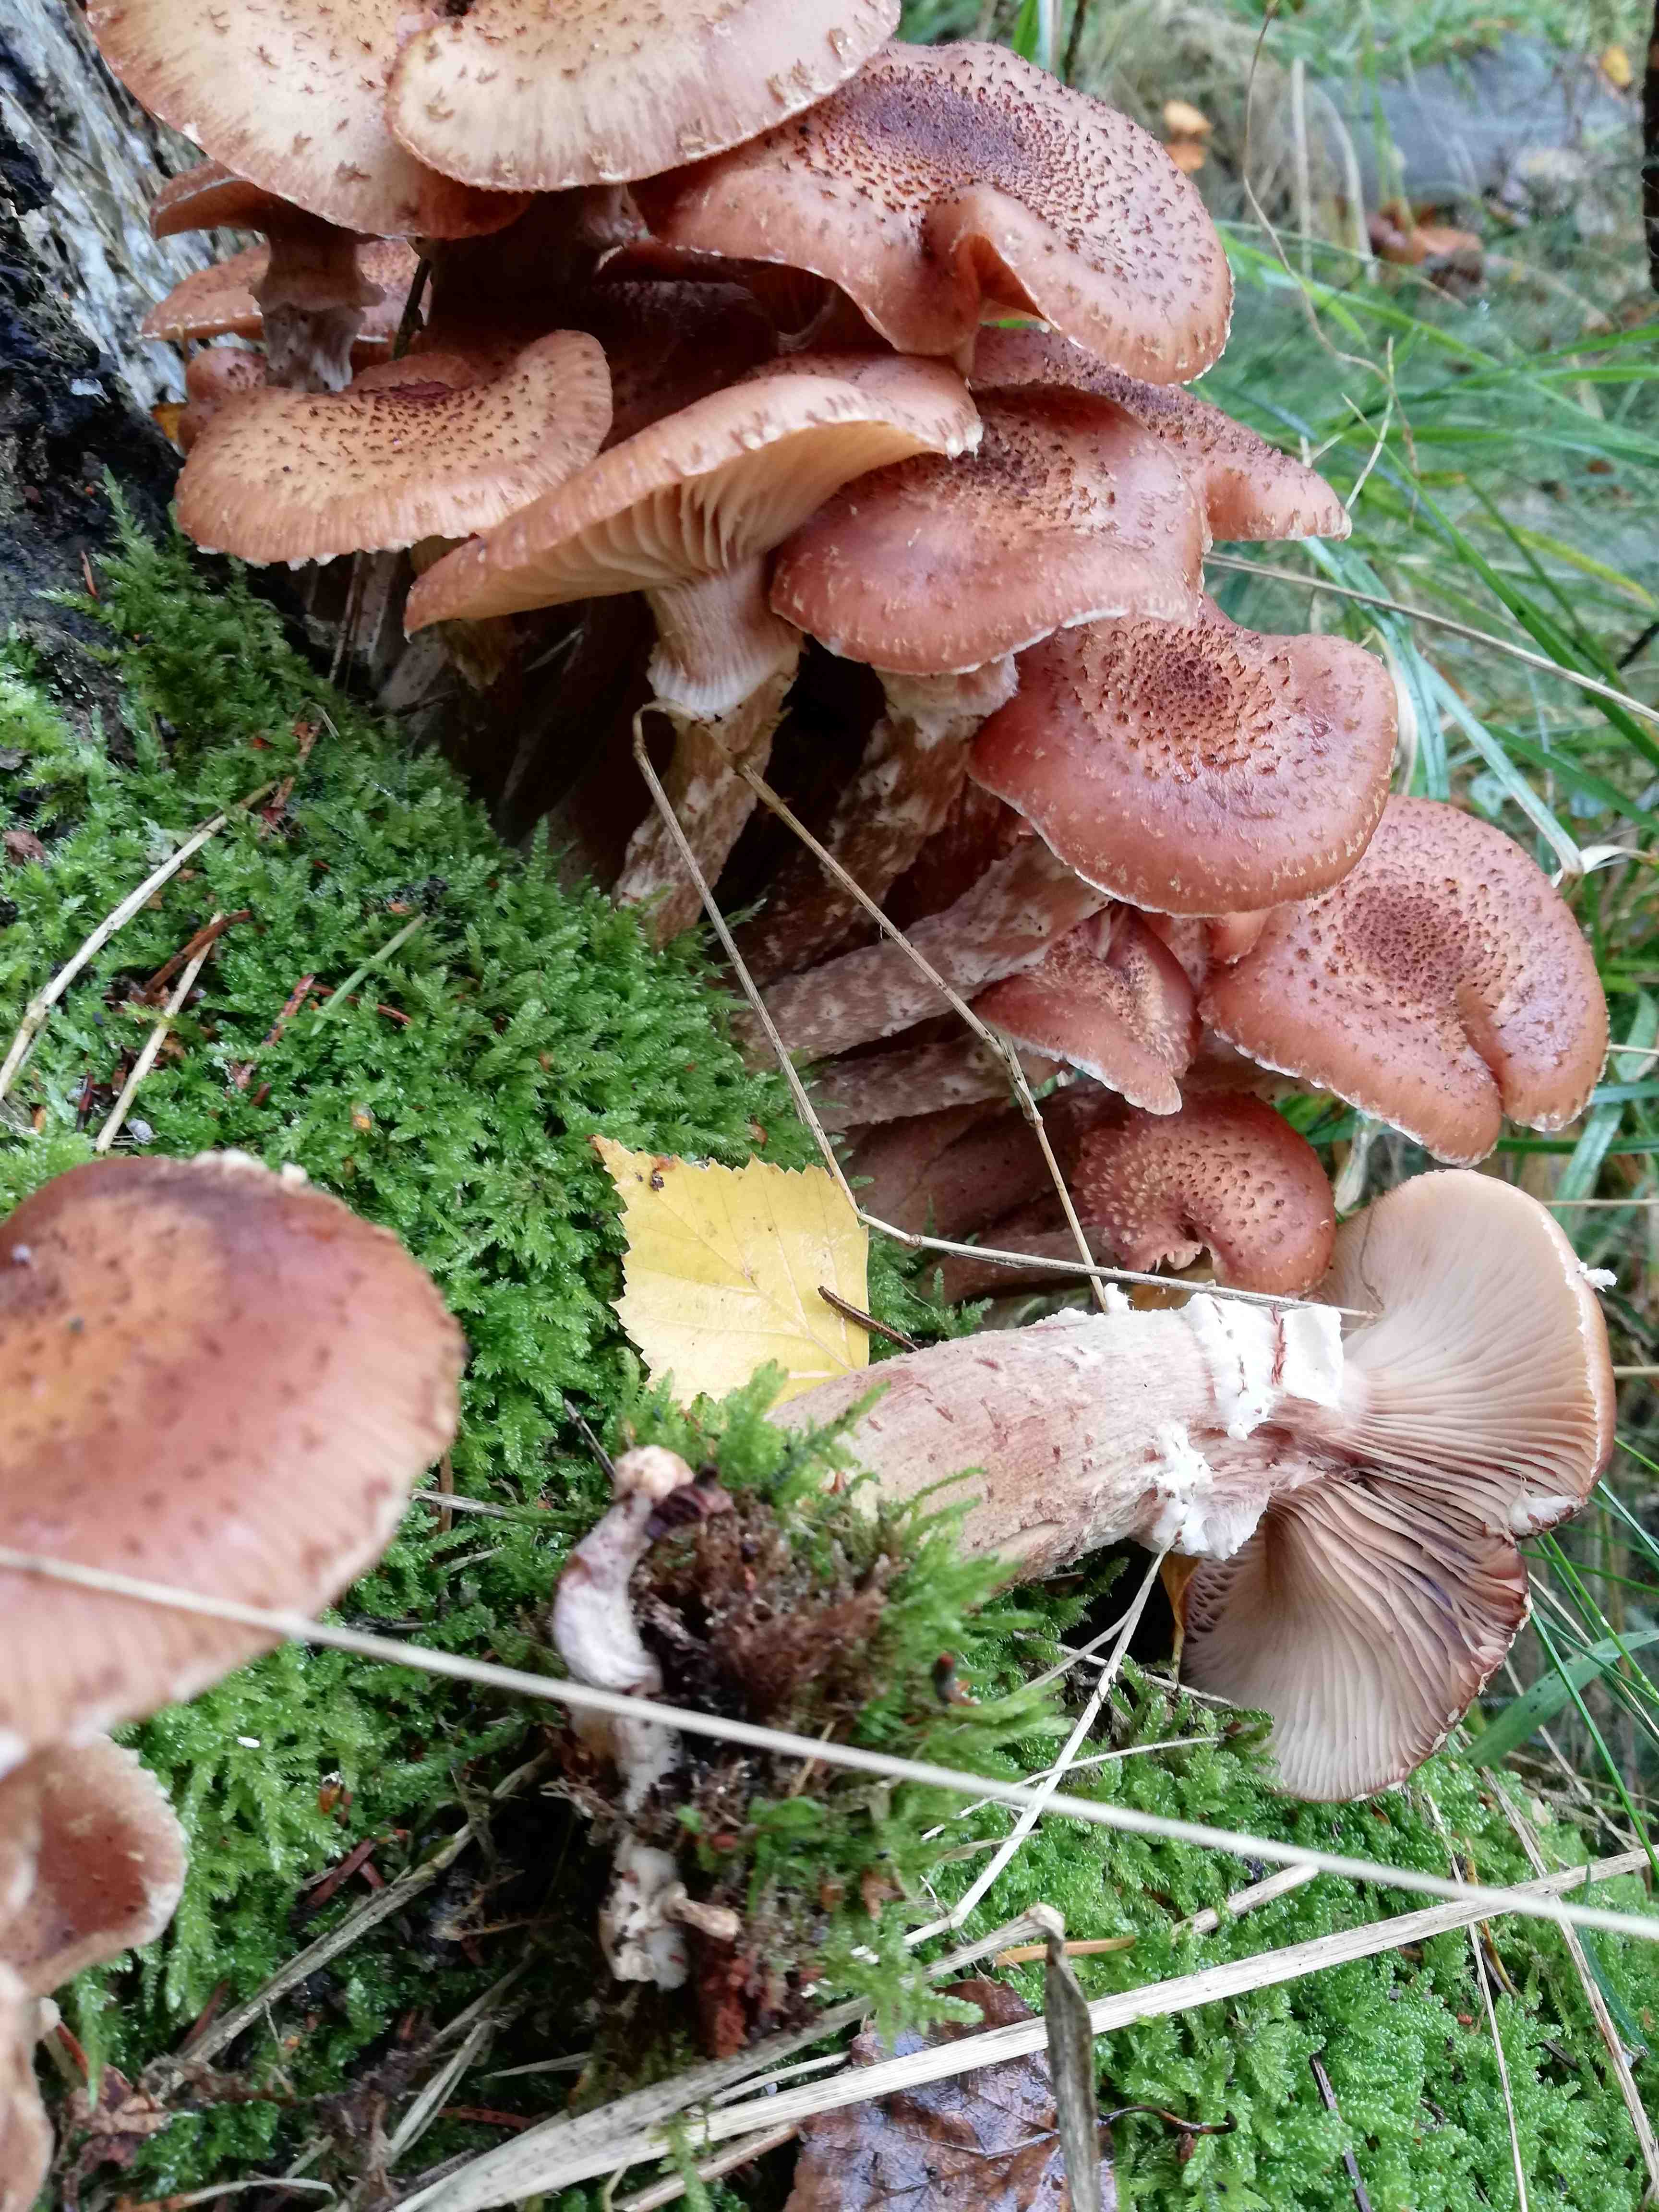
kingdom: Fungi
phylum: Basidiomycota
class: Agaricomycetes
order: Agaricales
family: Physalacriaceae
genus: Armillaria
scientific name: Armillaria ostoyae
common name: mørk honningsvamp
